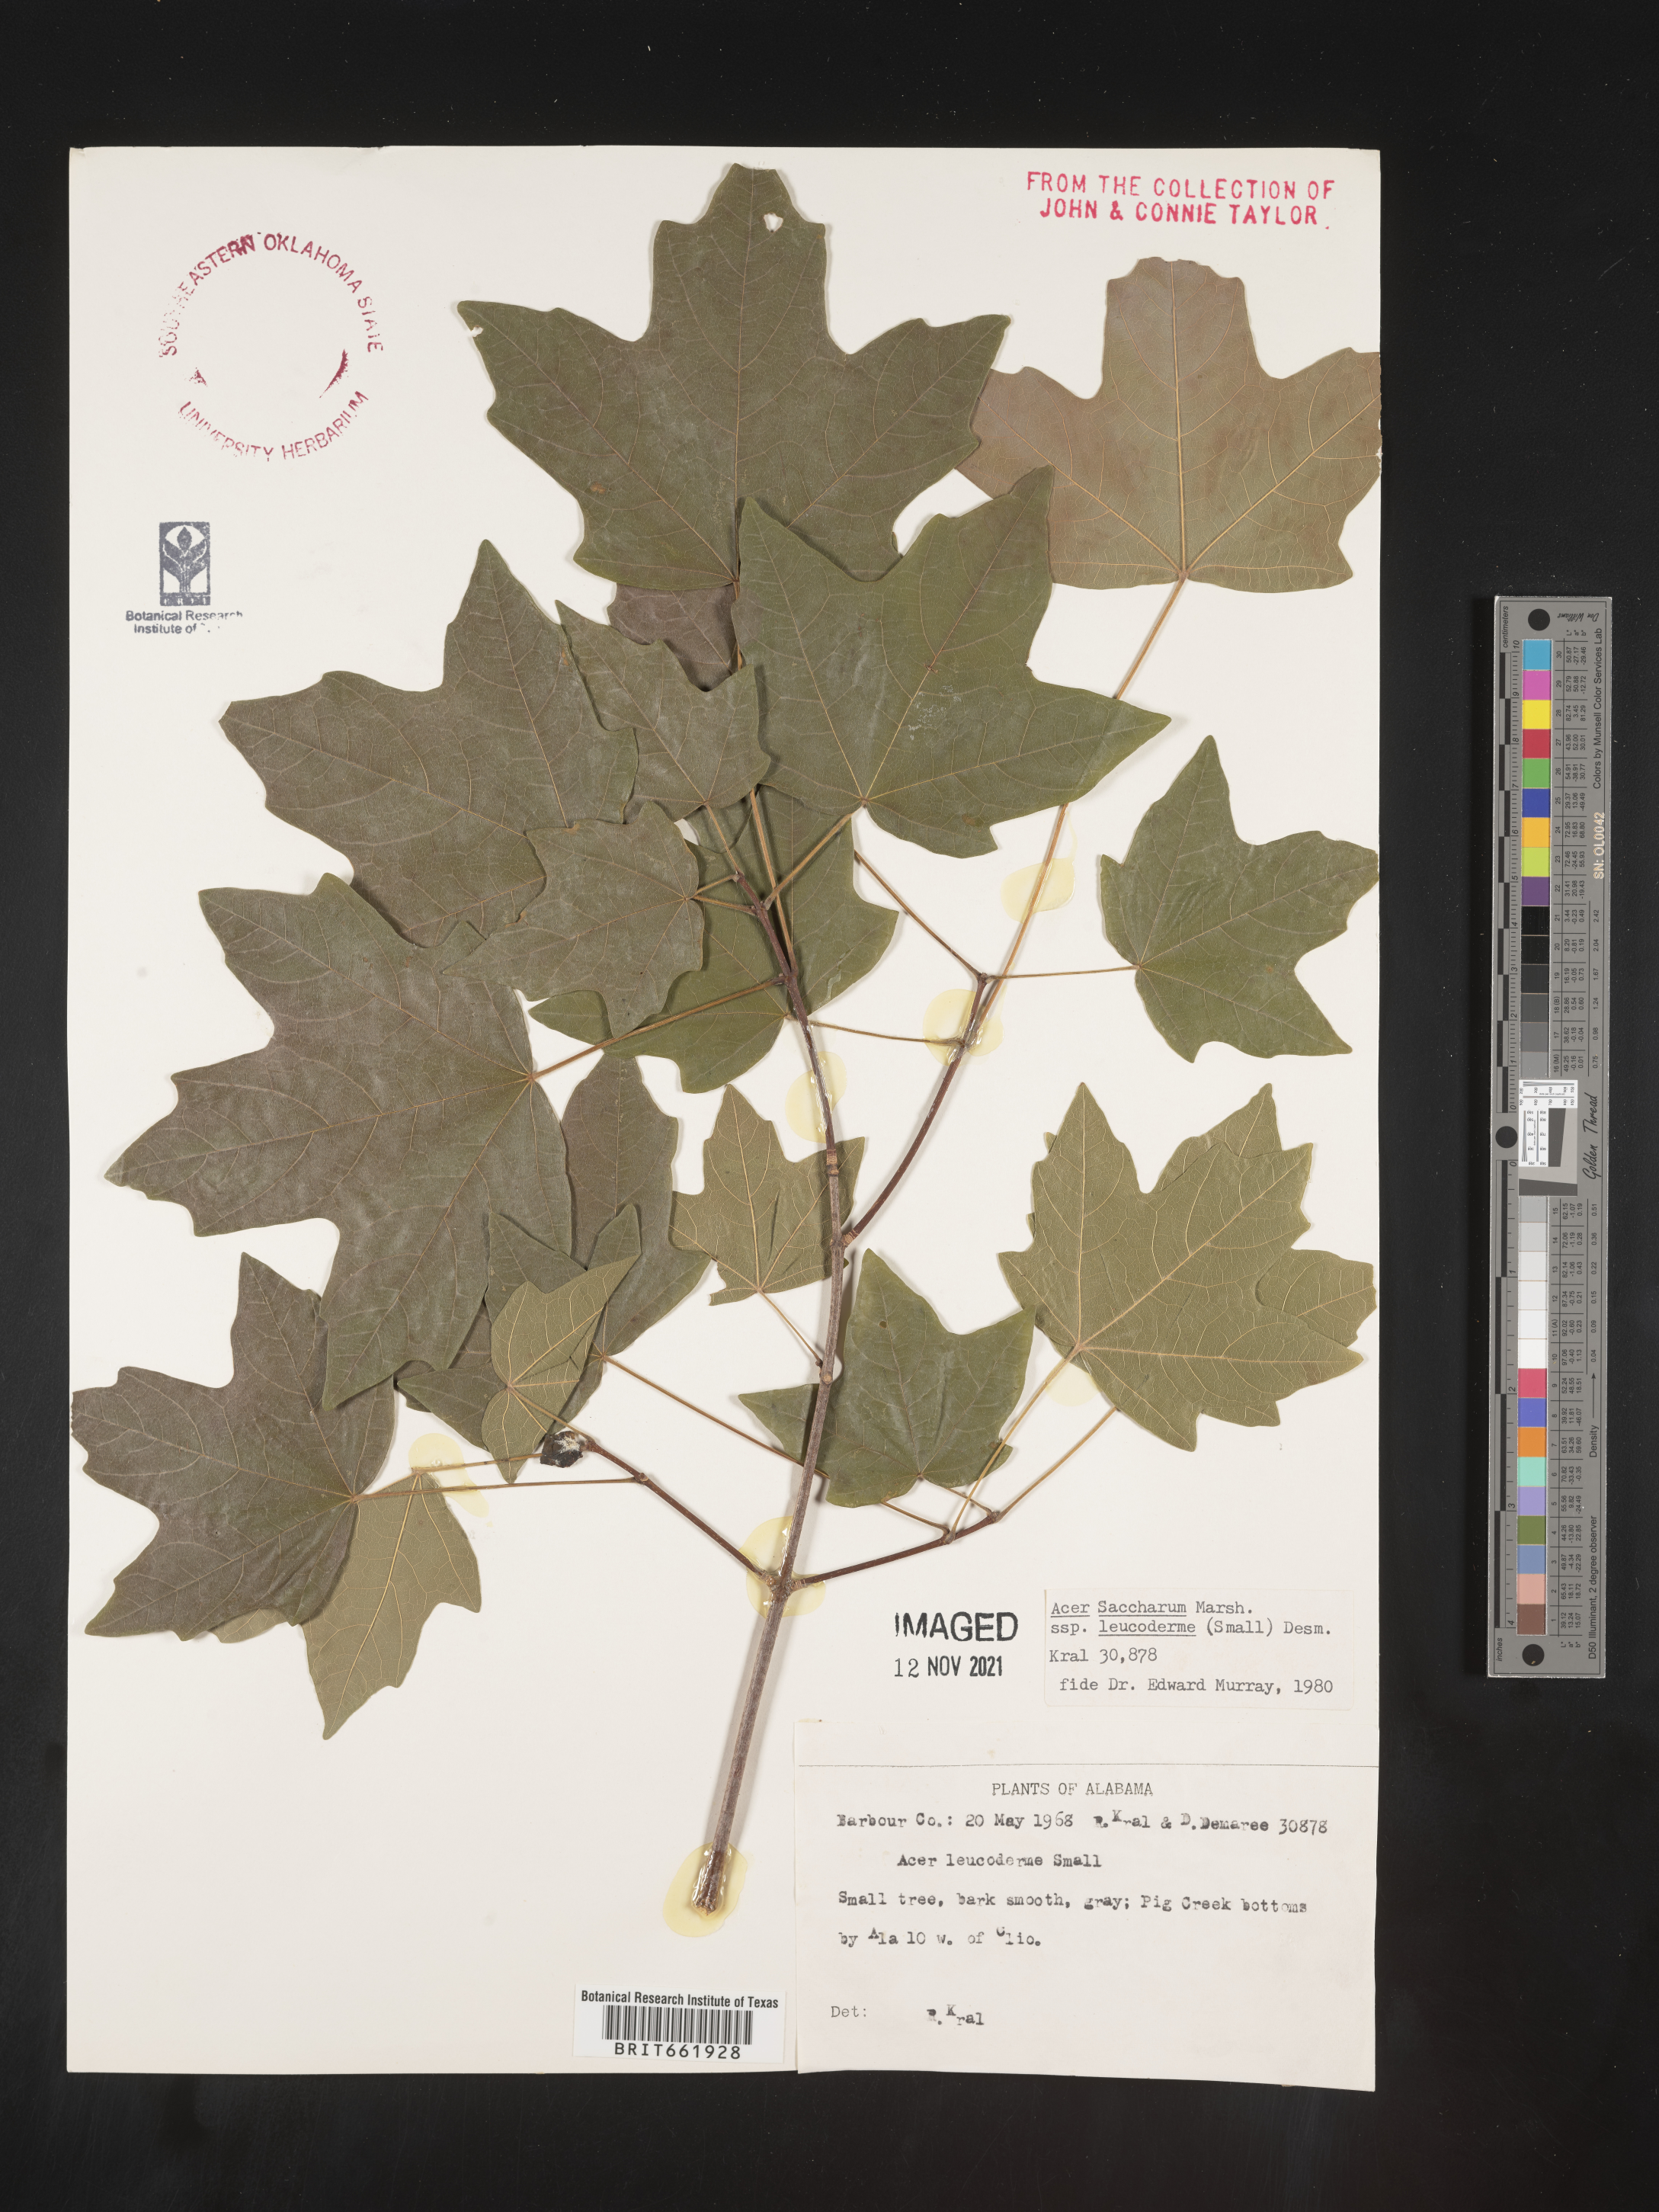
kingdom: Plantae
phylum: Tracheophyta
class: Magnoliopsida
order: Sapindales
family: Sapindaceae
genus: Acer
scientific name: Acer leucoderme
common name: Chalk maple
